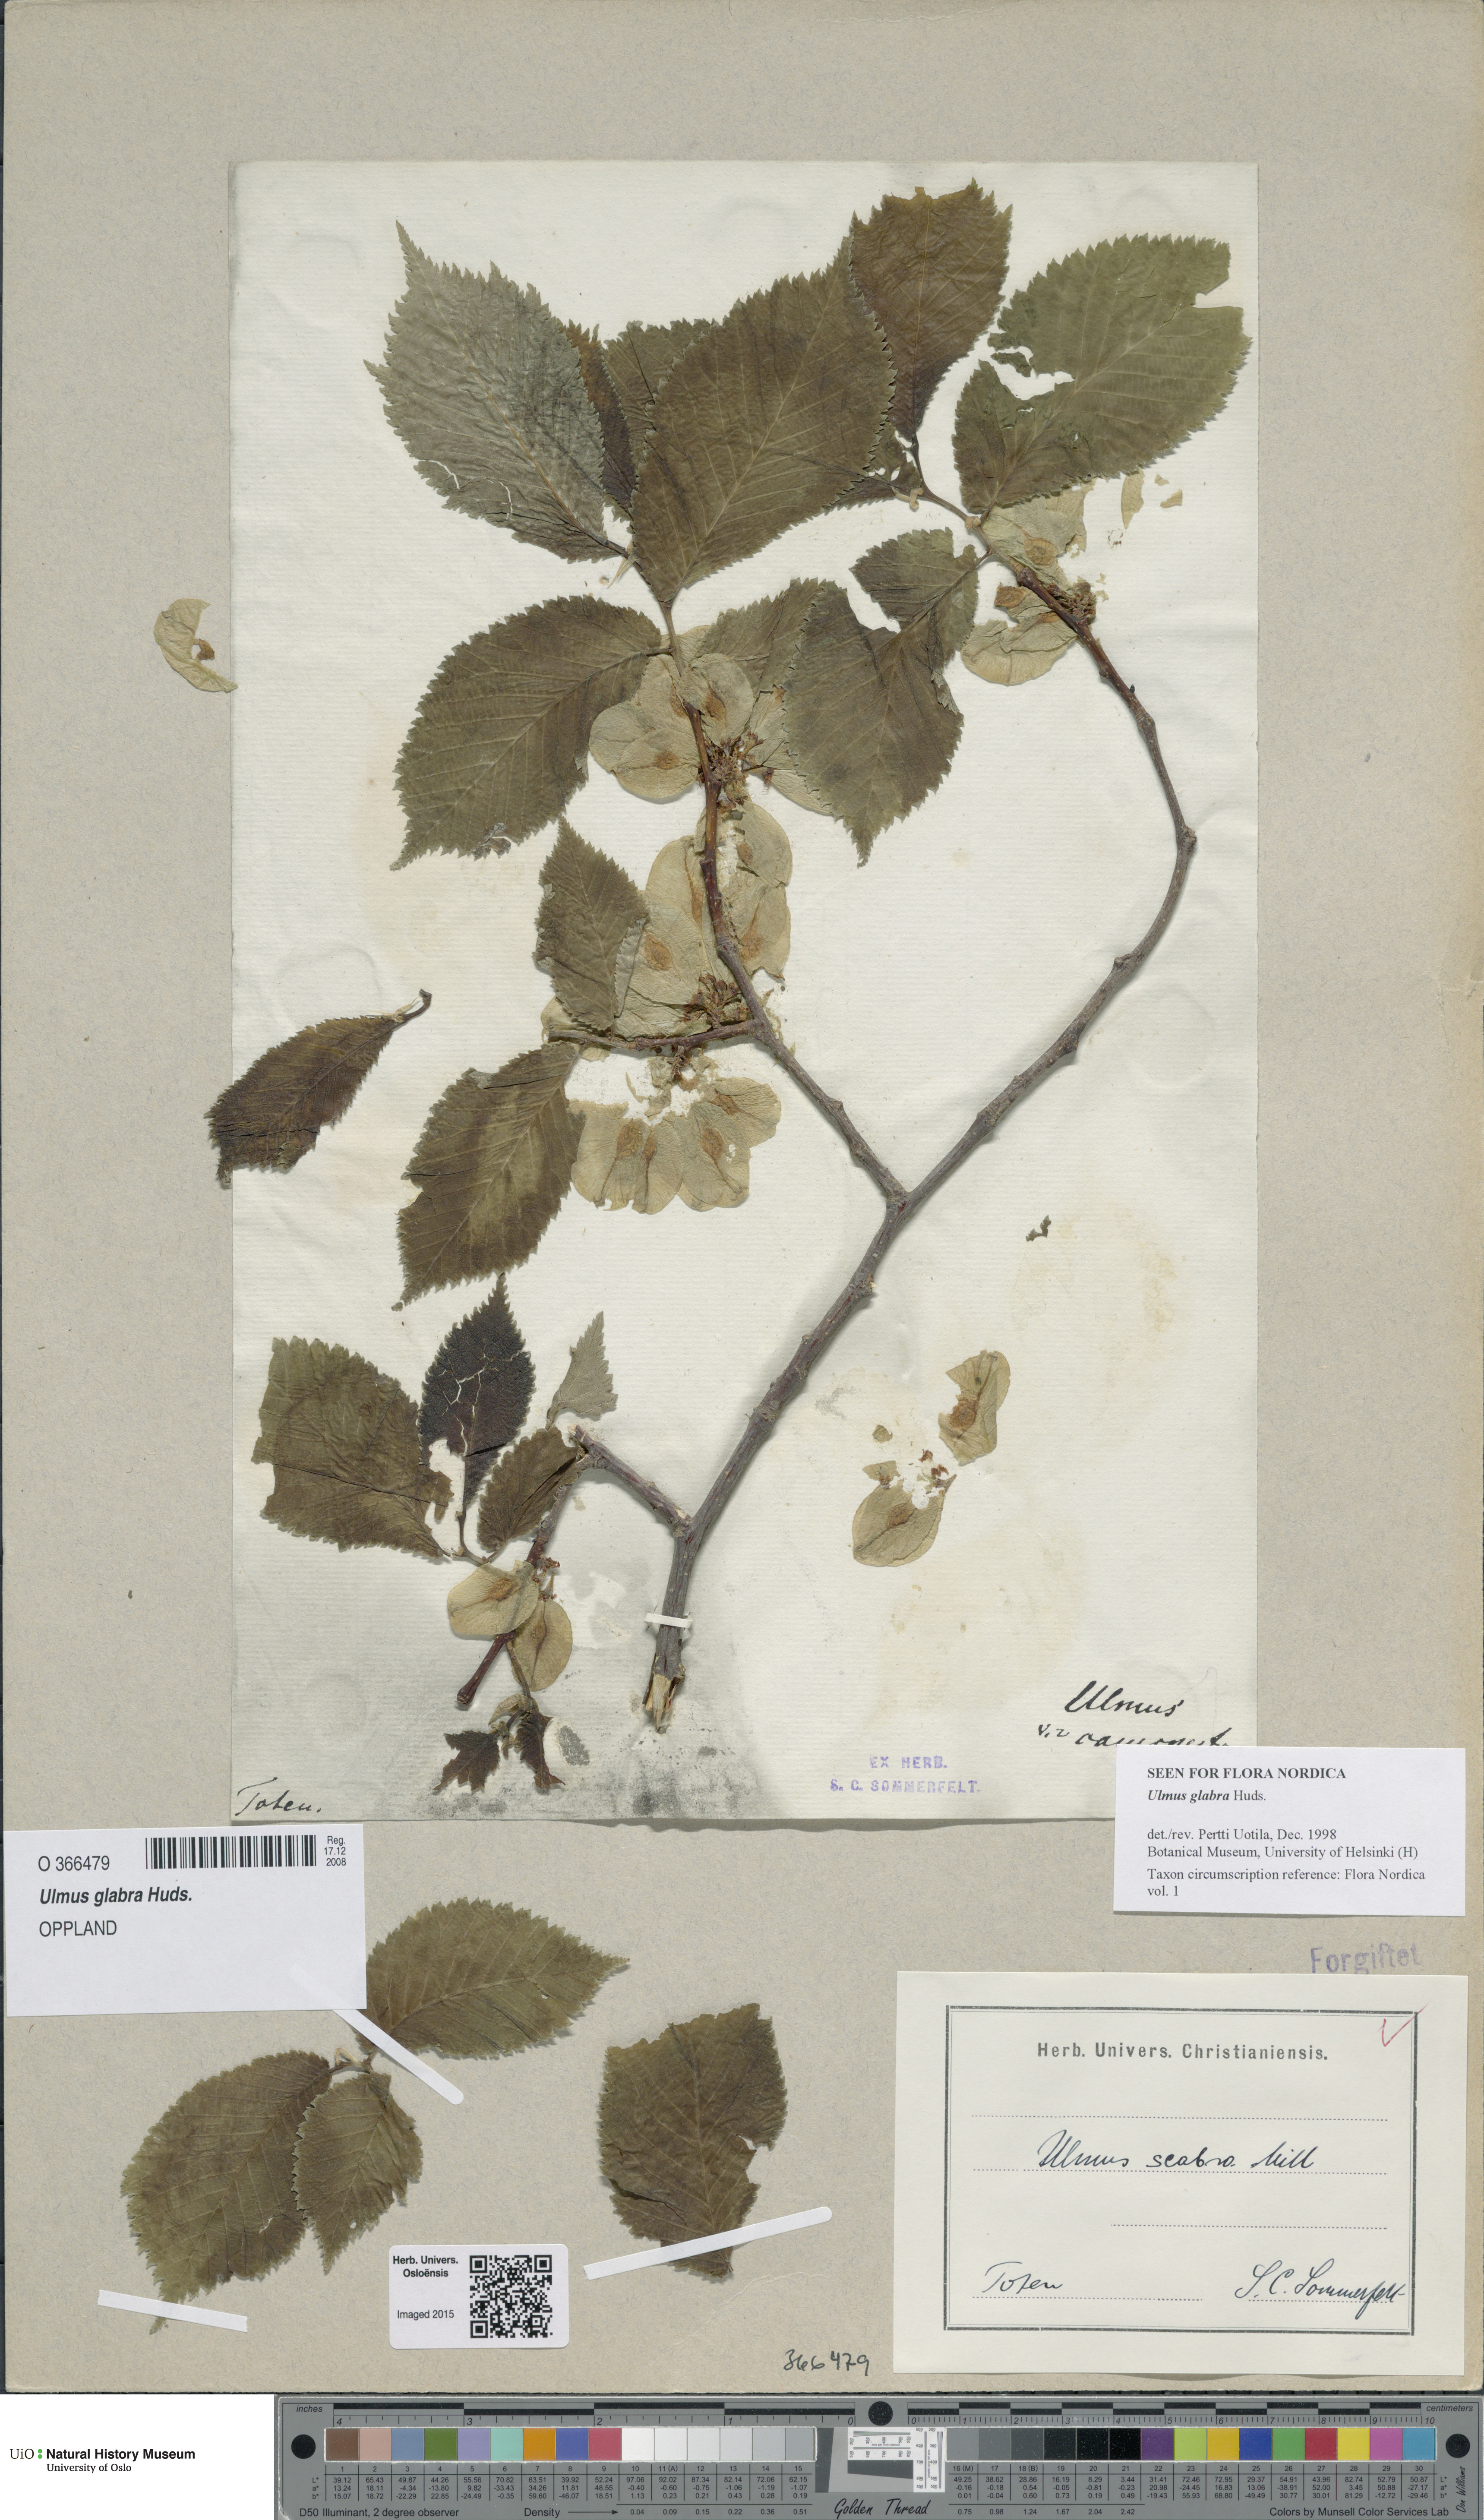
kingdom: Plantae
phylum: Tracheophyta
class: Magnoliopsida
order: Rosales
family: Ulmaceae
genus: Ulmus
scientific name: Ulmus glabra
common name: Wych elm
